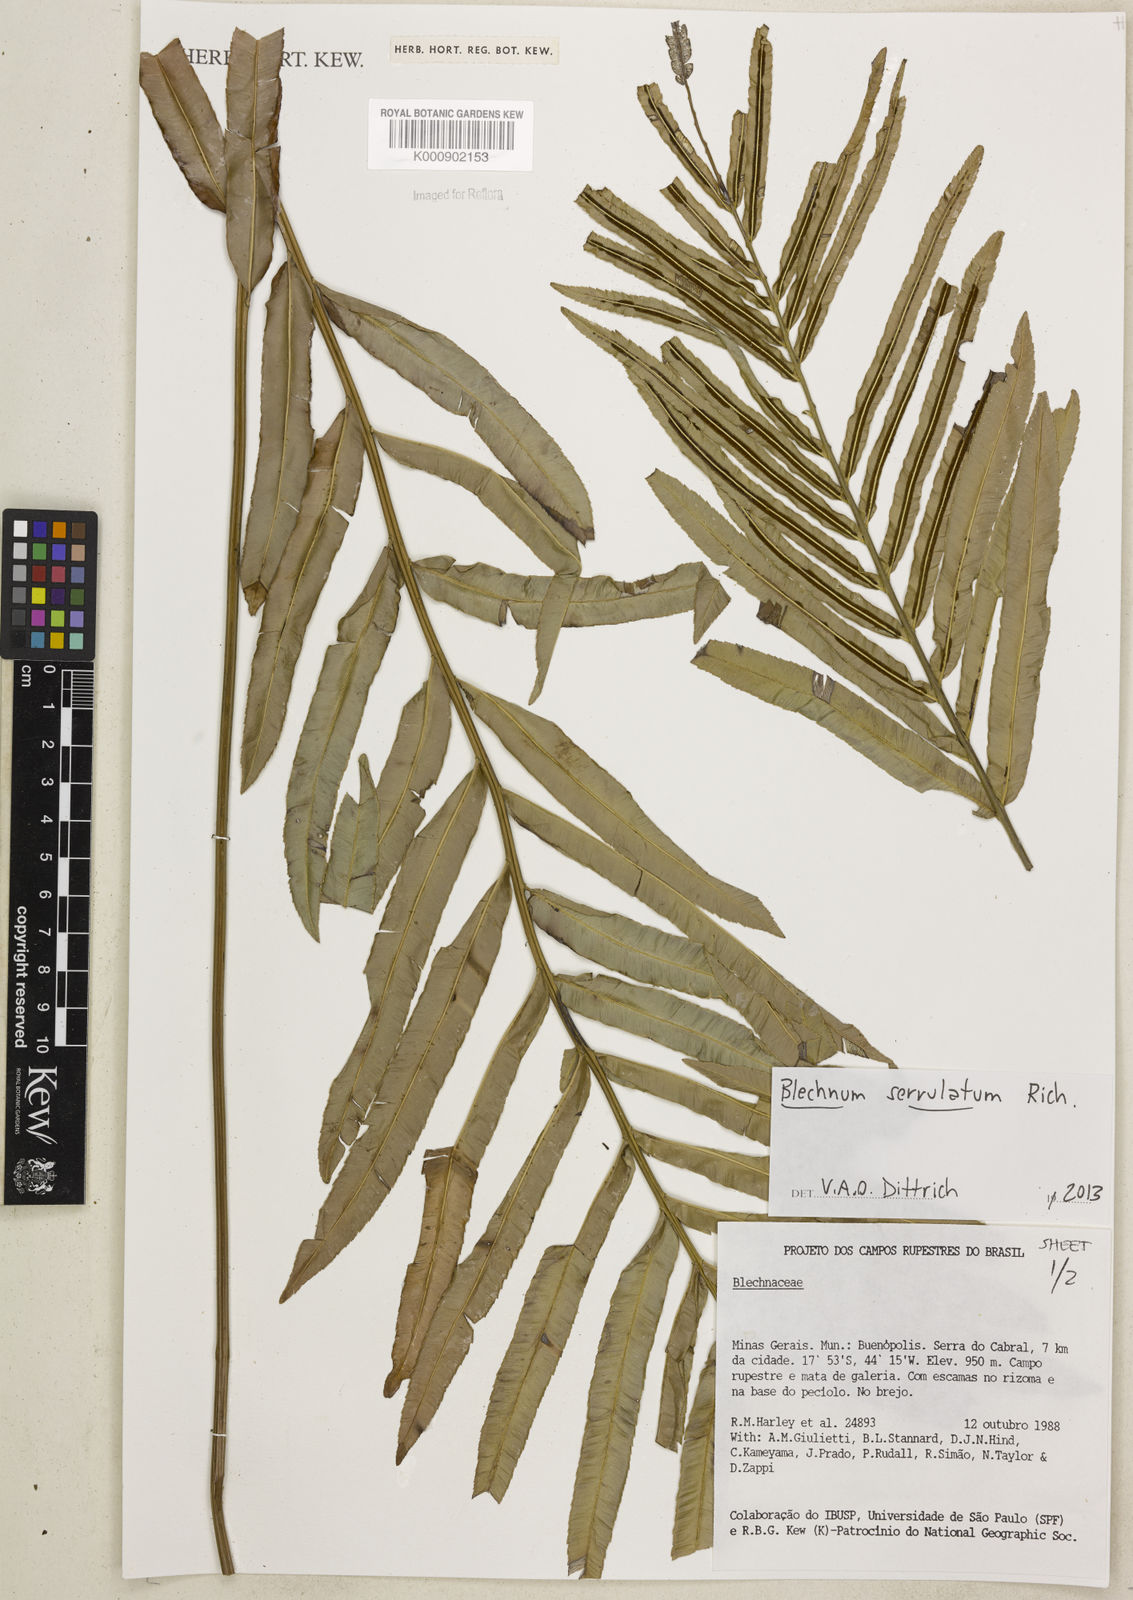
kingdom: Plantae
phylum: Tracheophyta
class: Polypodiopsida
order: Polypodiales
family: Blechnaceae
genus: Telmatoblechnum
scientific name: Telmatoblechnum serrulatum
